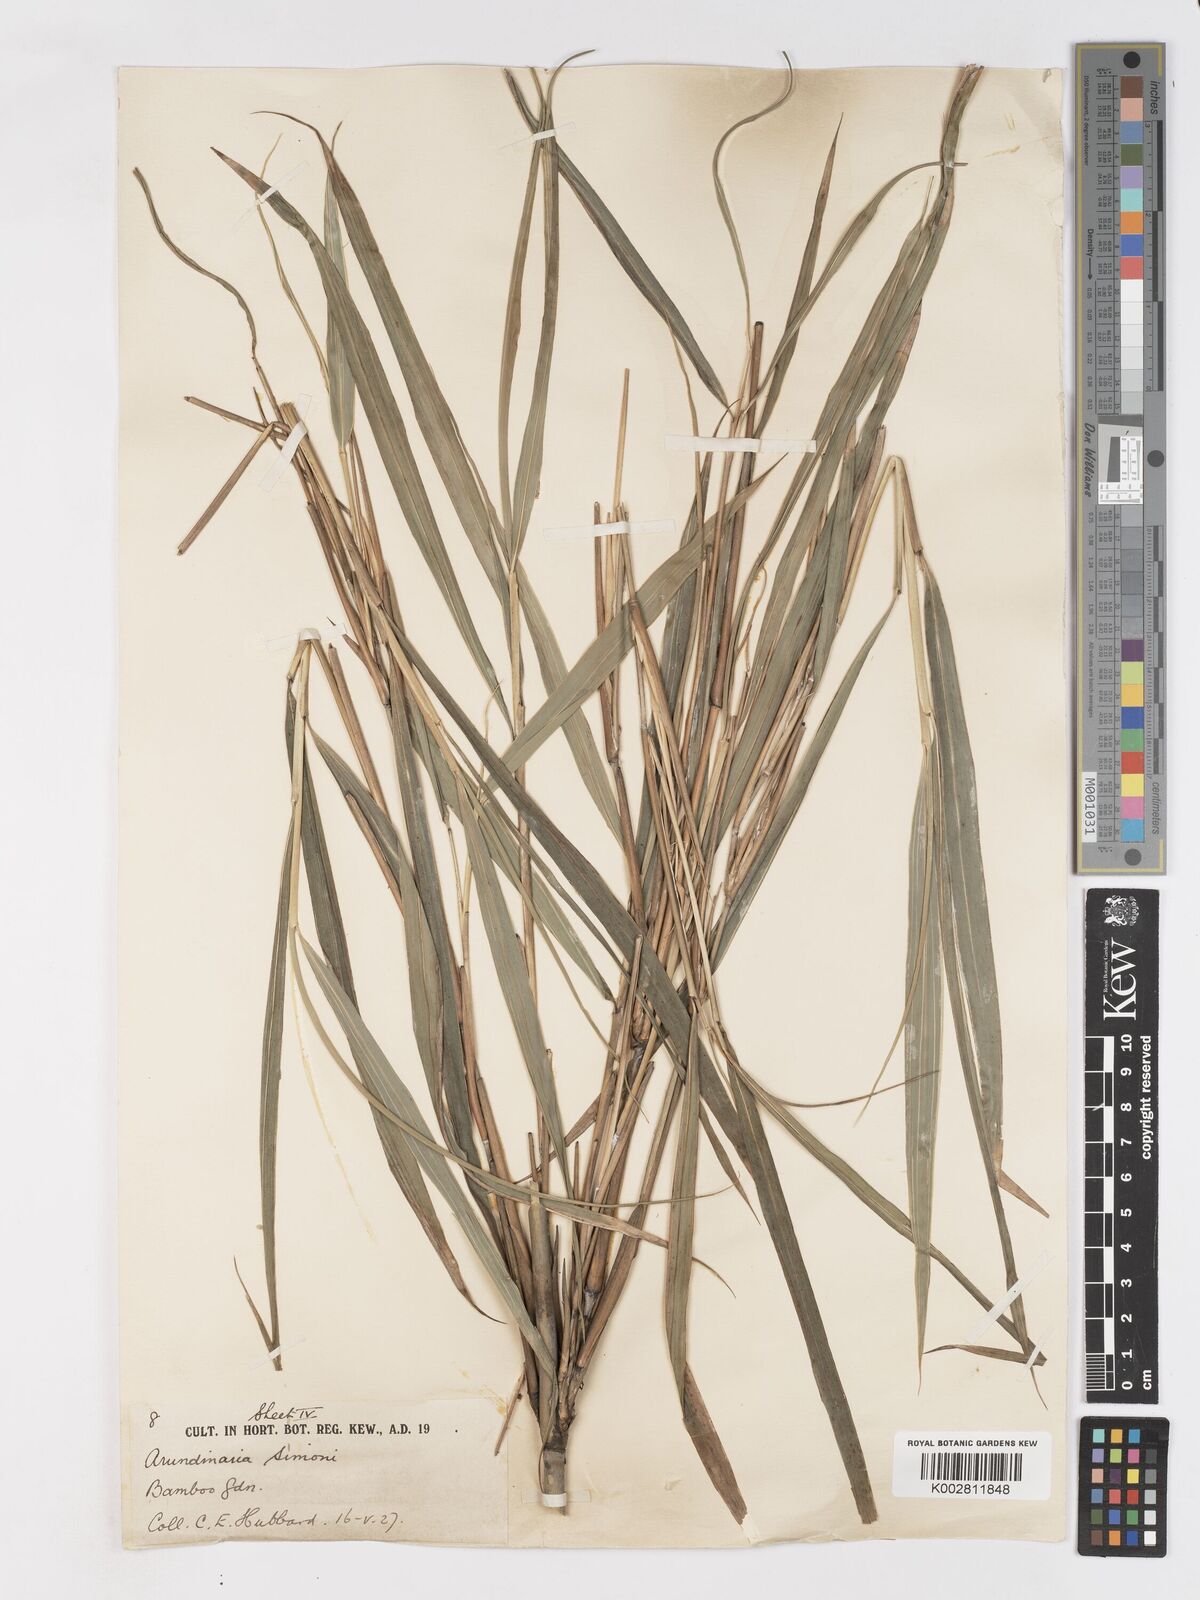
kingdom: Plantae
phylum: Tracheophyta
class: Liliopsida
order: Poales
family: Poaceae
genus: Pleioblastus
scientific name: Pleioblastus simonii
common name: Simon bamboo
